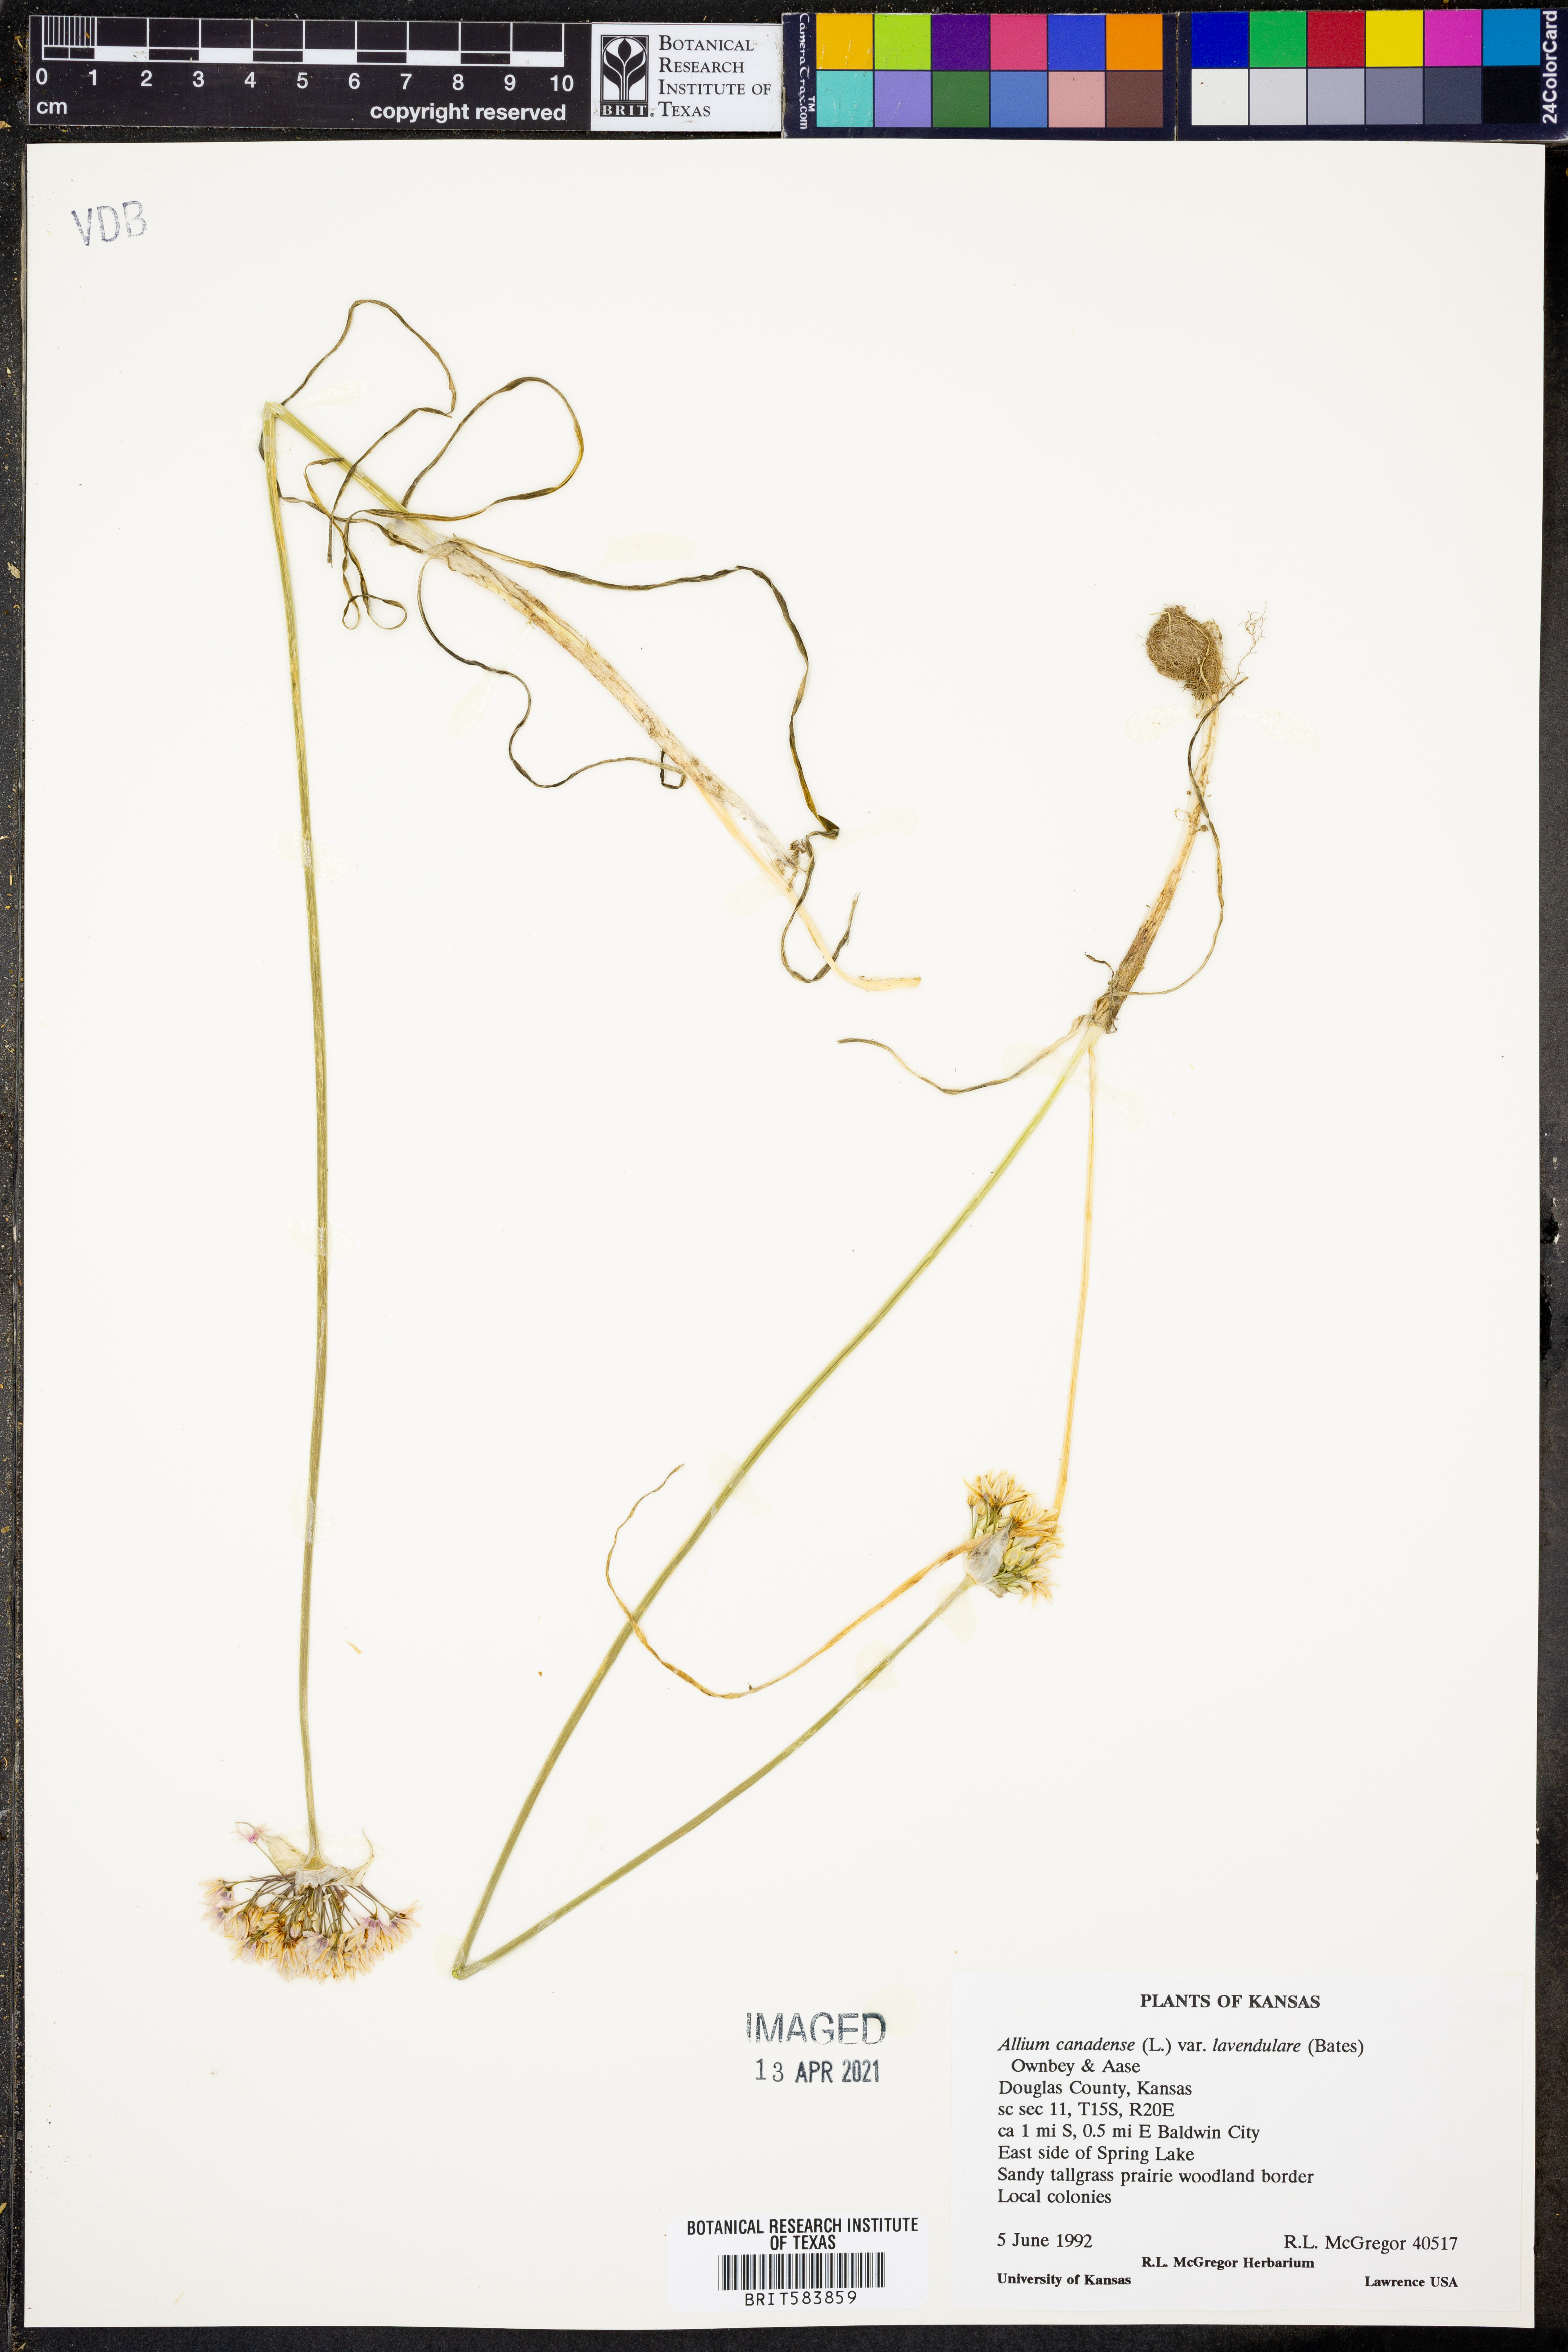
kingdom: Plantae
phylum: Tracheophyta
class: Liliopsida
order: Asparagales
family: Amaryllidaceae
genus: Allium
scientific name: Allium canadense
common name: Meadow garlic
